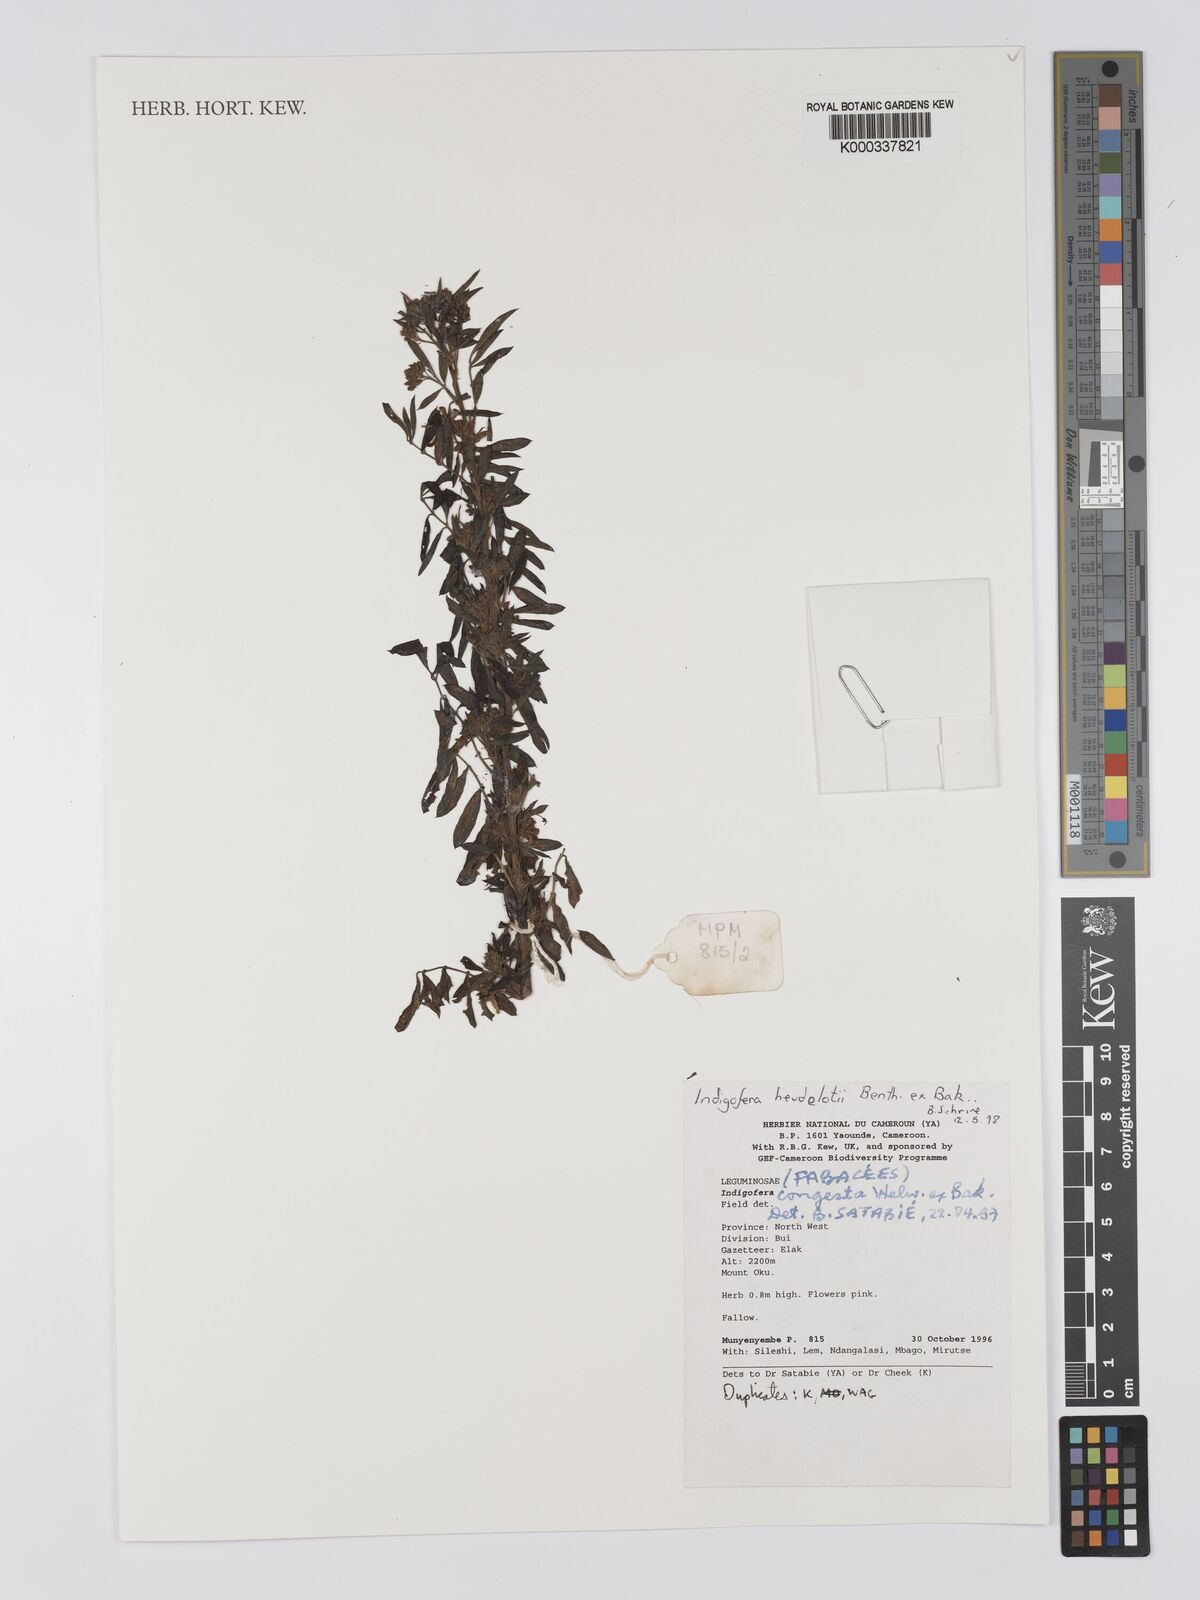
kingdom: Plantae
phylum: Tracheophyta
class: Magnoliopsida
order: Fabales
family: Fabaceae
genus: Indigofera
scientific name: Indigofera congesta
